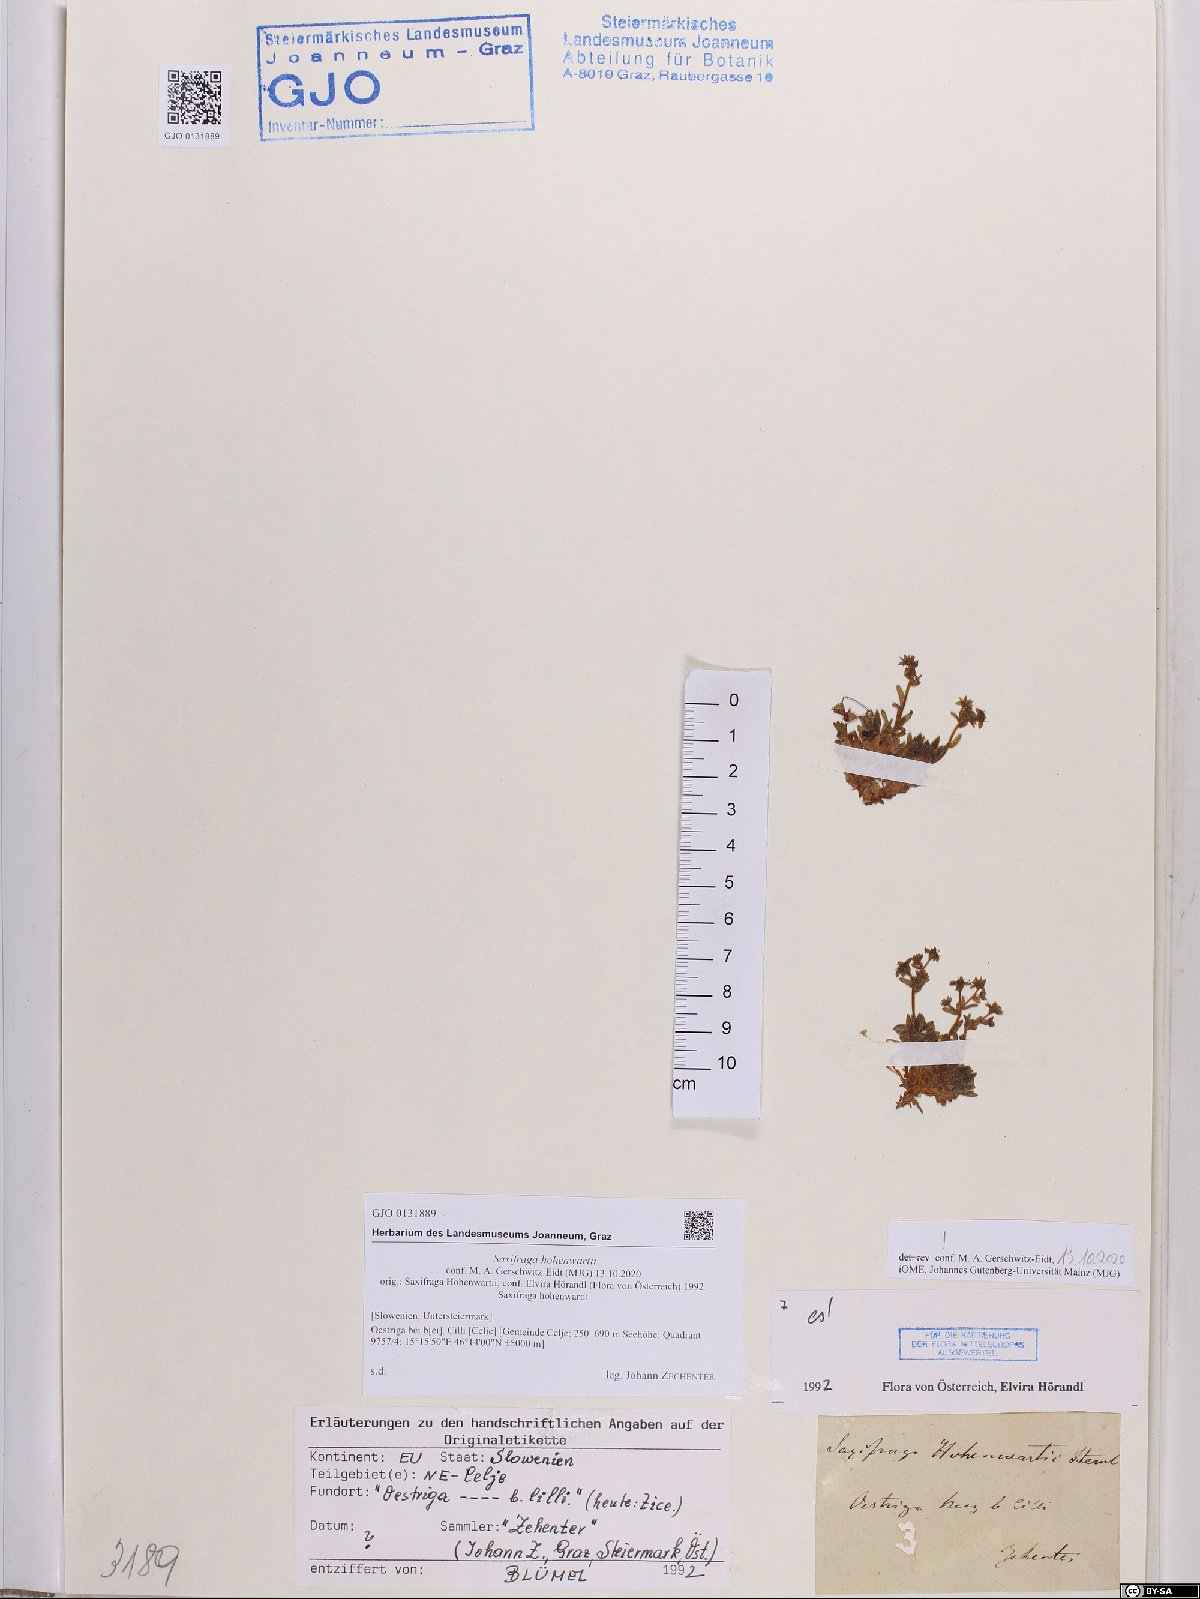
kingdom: Plantae
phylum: Tracheophyta
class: Magnoliopsida
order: Saxifragales
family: Saxifragaceae
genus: Saxifraga
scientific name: Saxifraga hohenwartii
